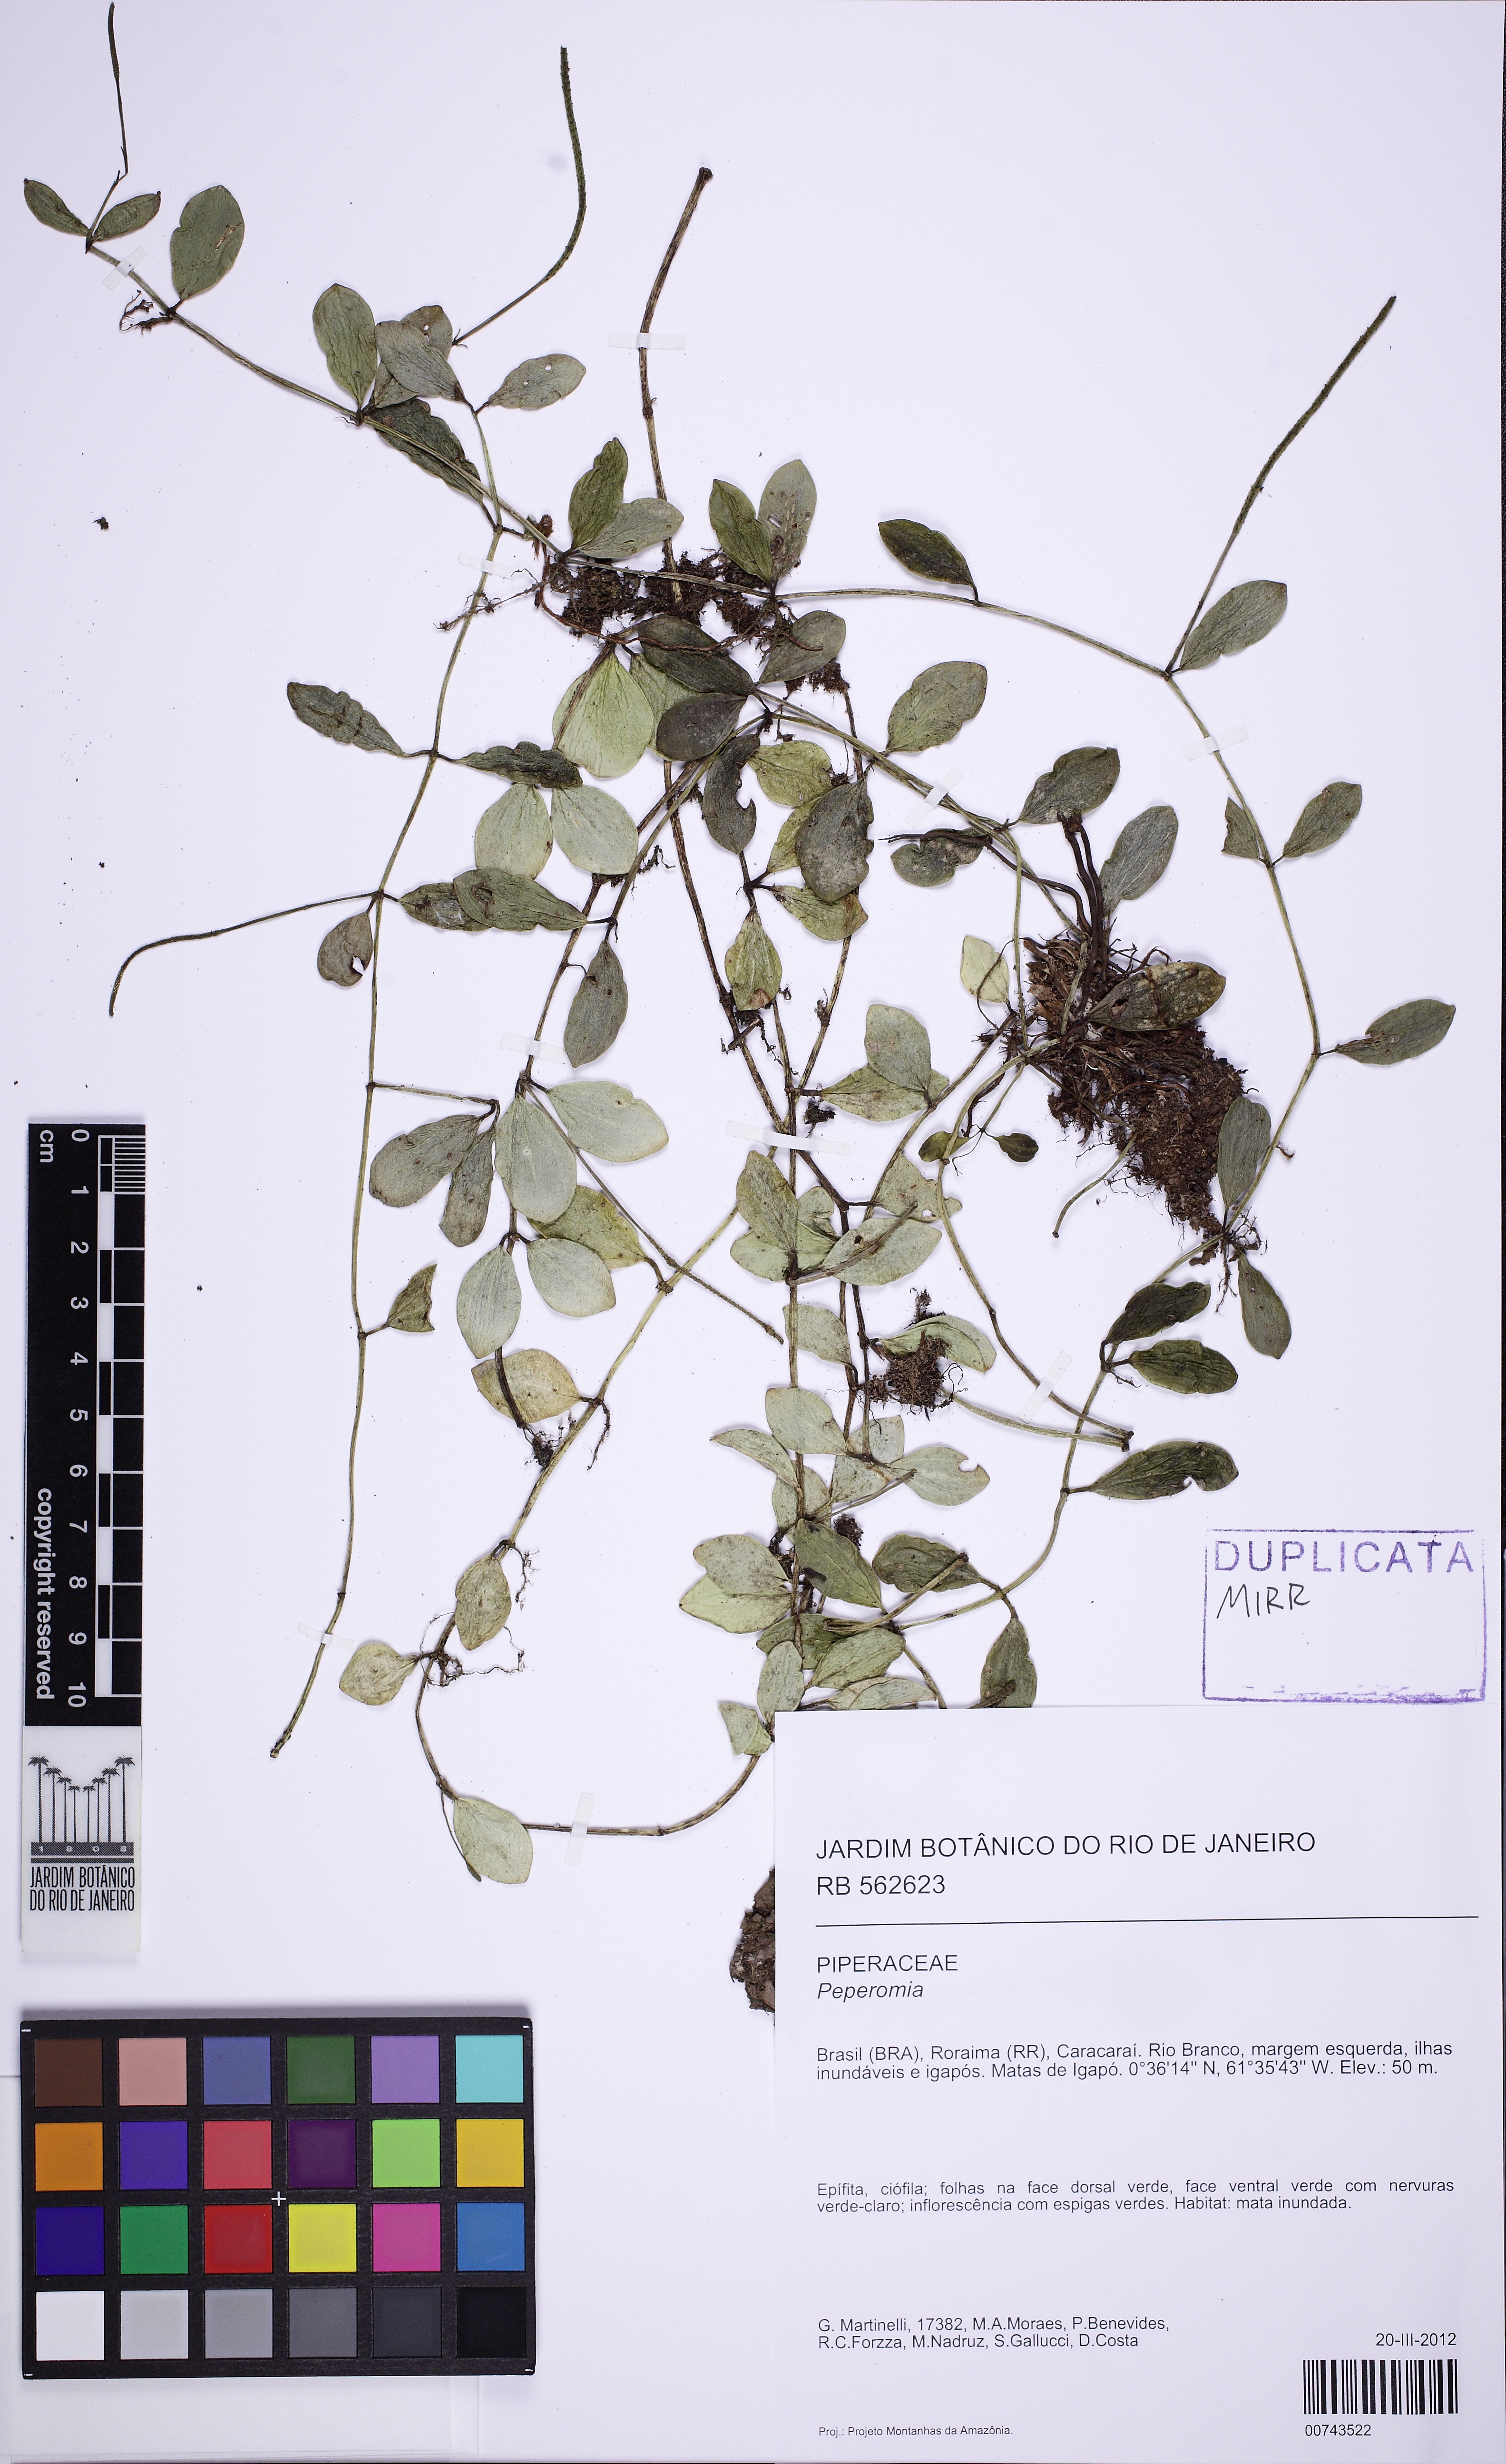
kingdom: Plantae
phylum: Tracheophyta
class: Magnoliopsida
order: Piperales
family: Piperaceae
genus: Peperomia
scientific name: Peperomia quadrangularis
